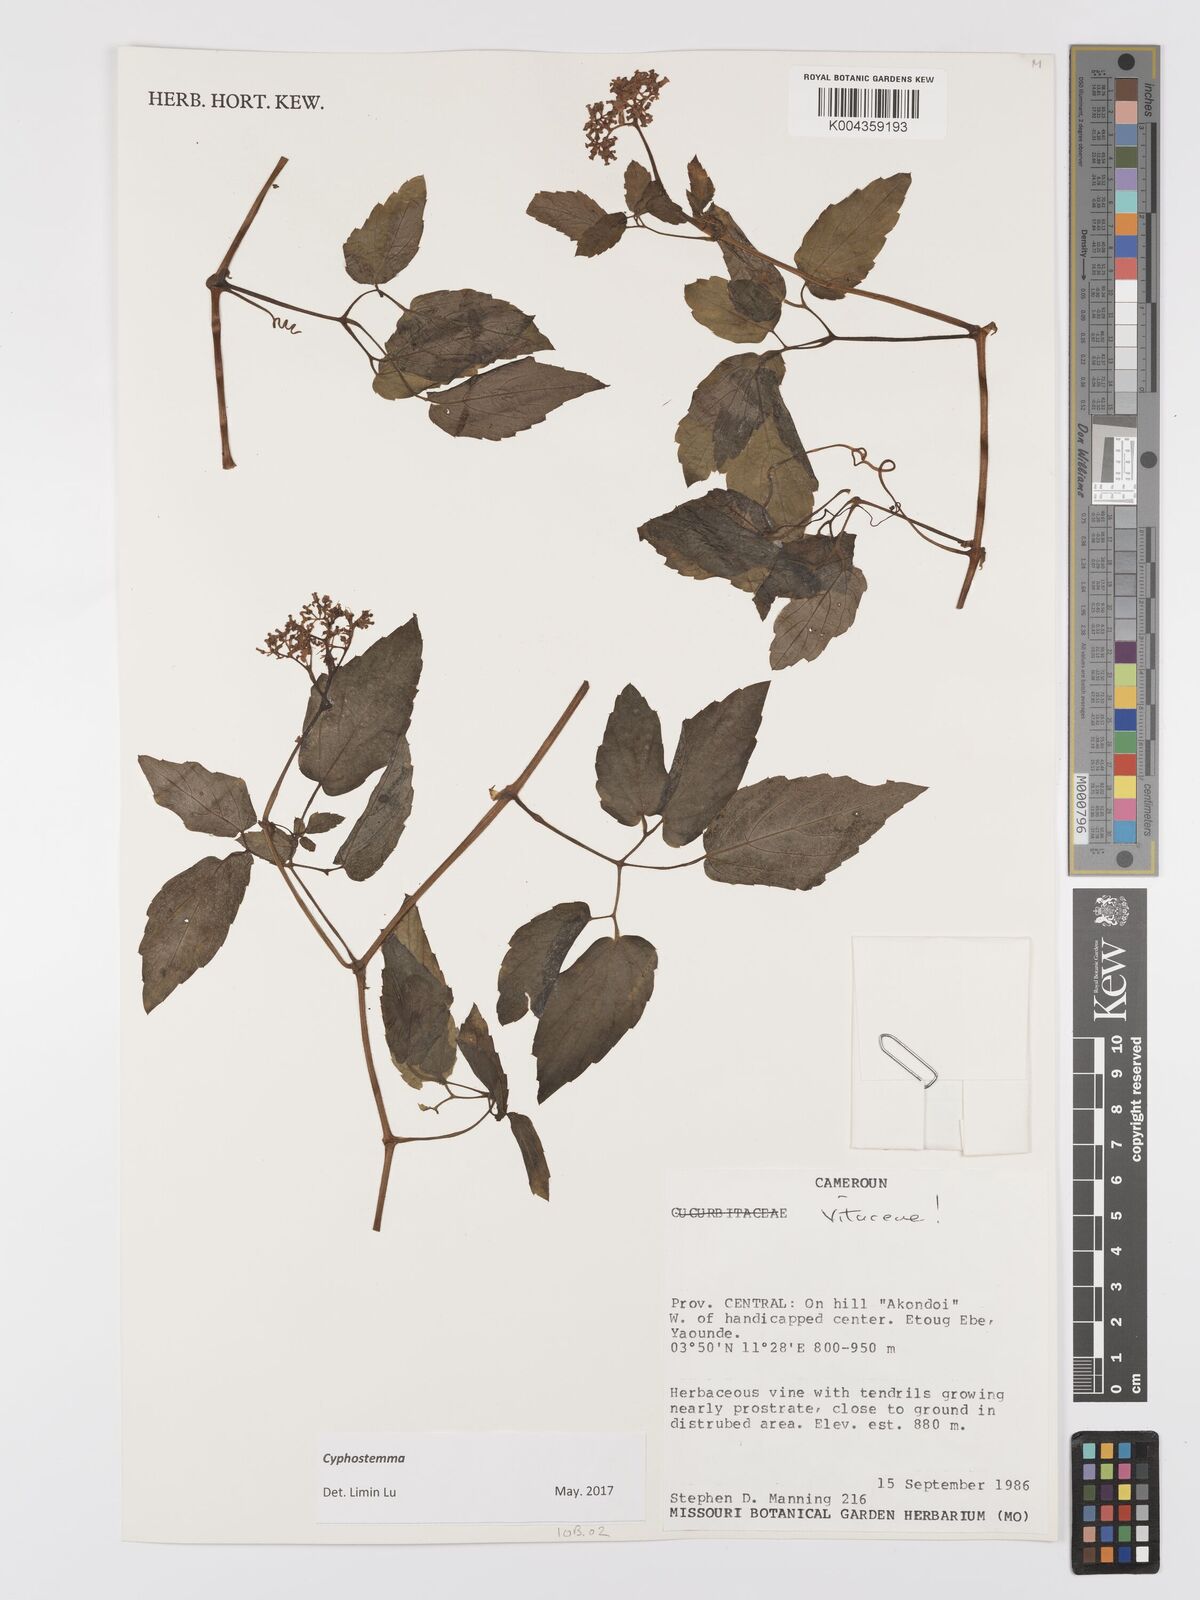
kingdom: Plantae
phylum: Tracheophyta
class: Magnoliopsida
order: Vitales
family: Vitaceae
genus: Cyphostemma
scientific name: Cyphostemma
